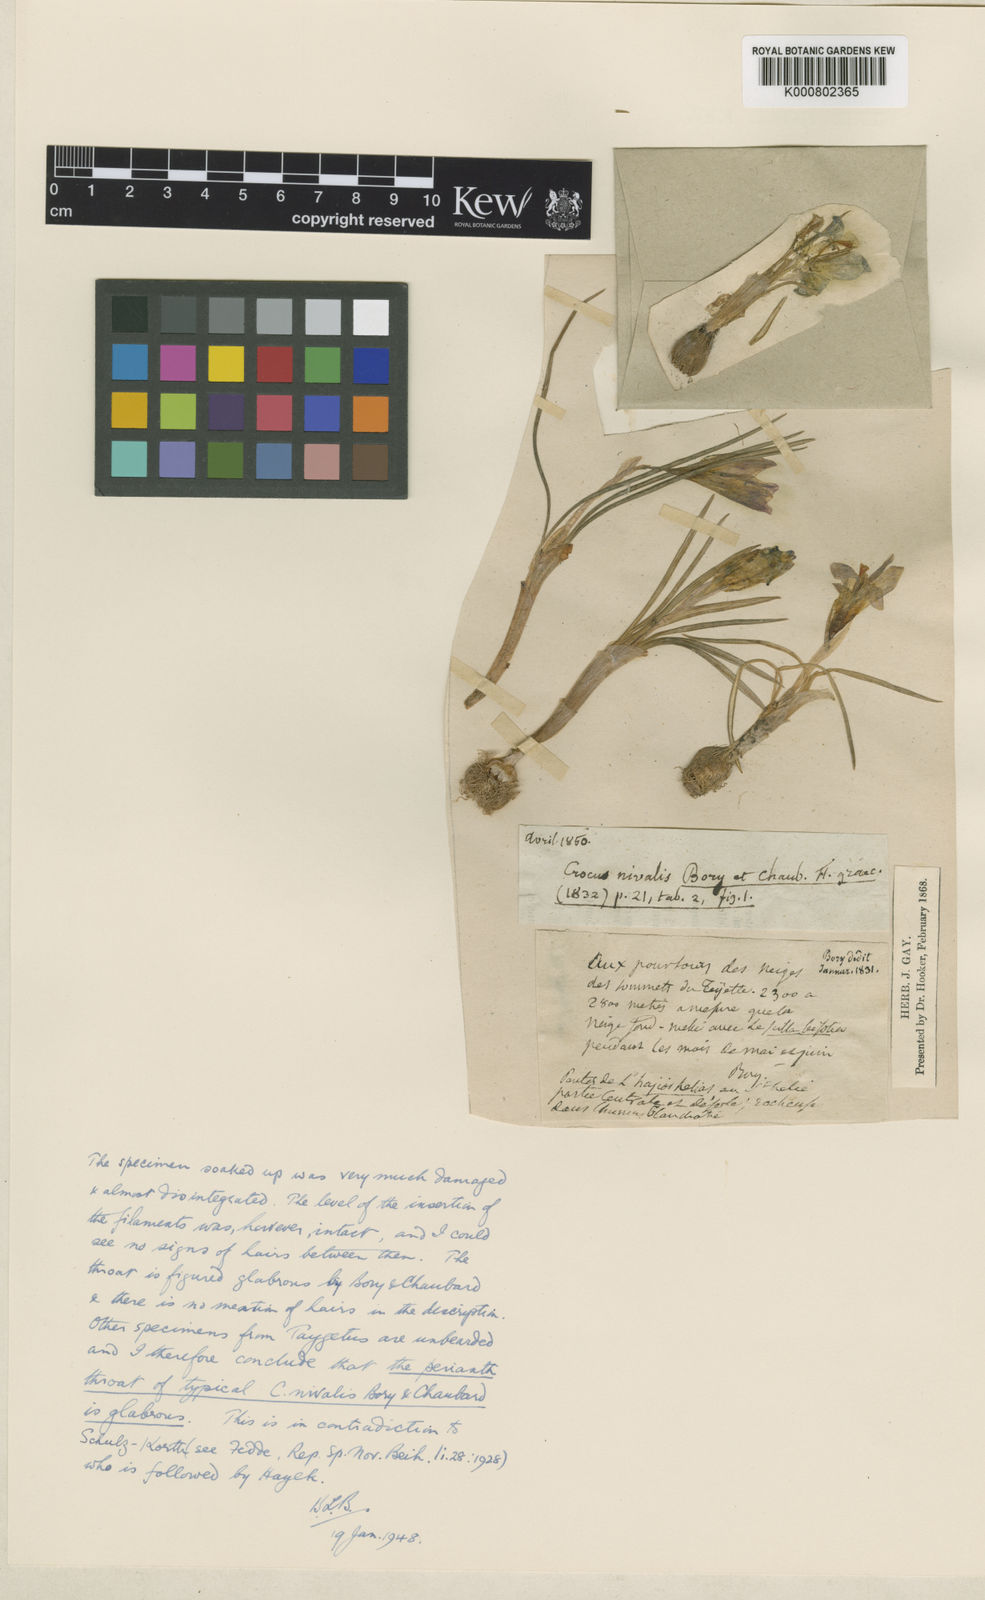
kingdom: Plantae
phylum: Tracheophyta
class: Liliopsida
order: Asparagales
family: Iridaceae
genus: Crocus
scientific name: Crocus nivalis
